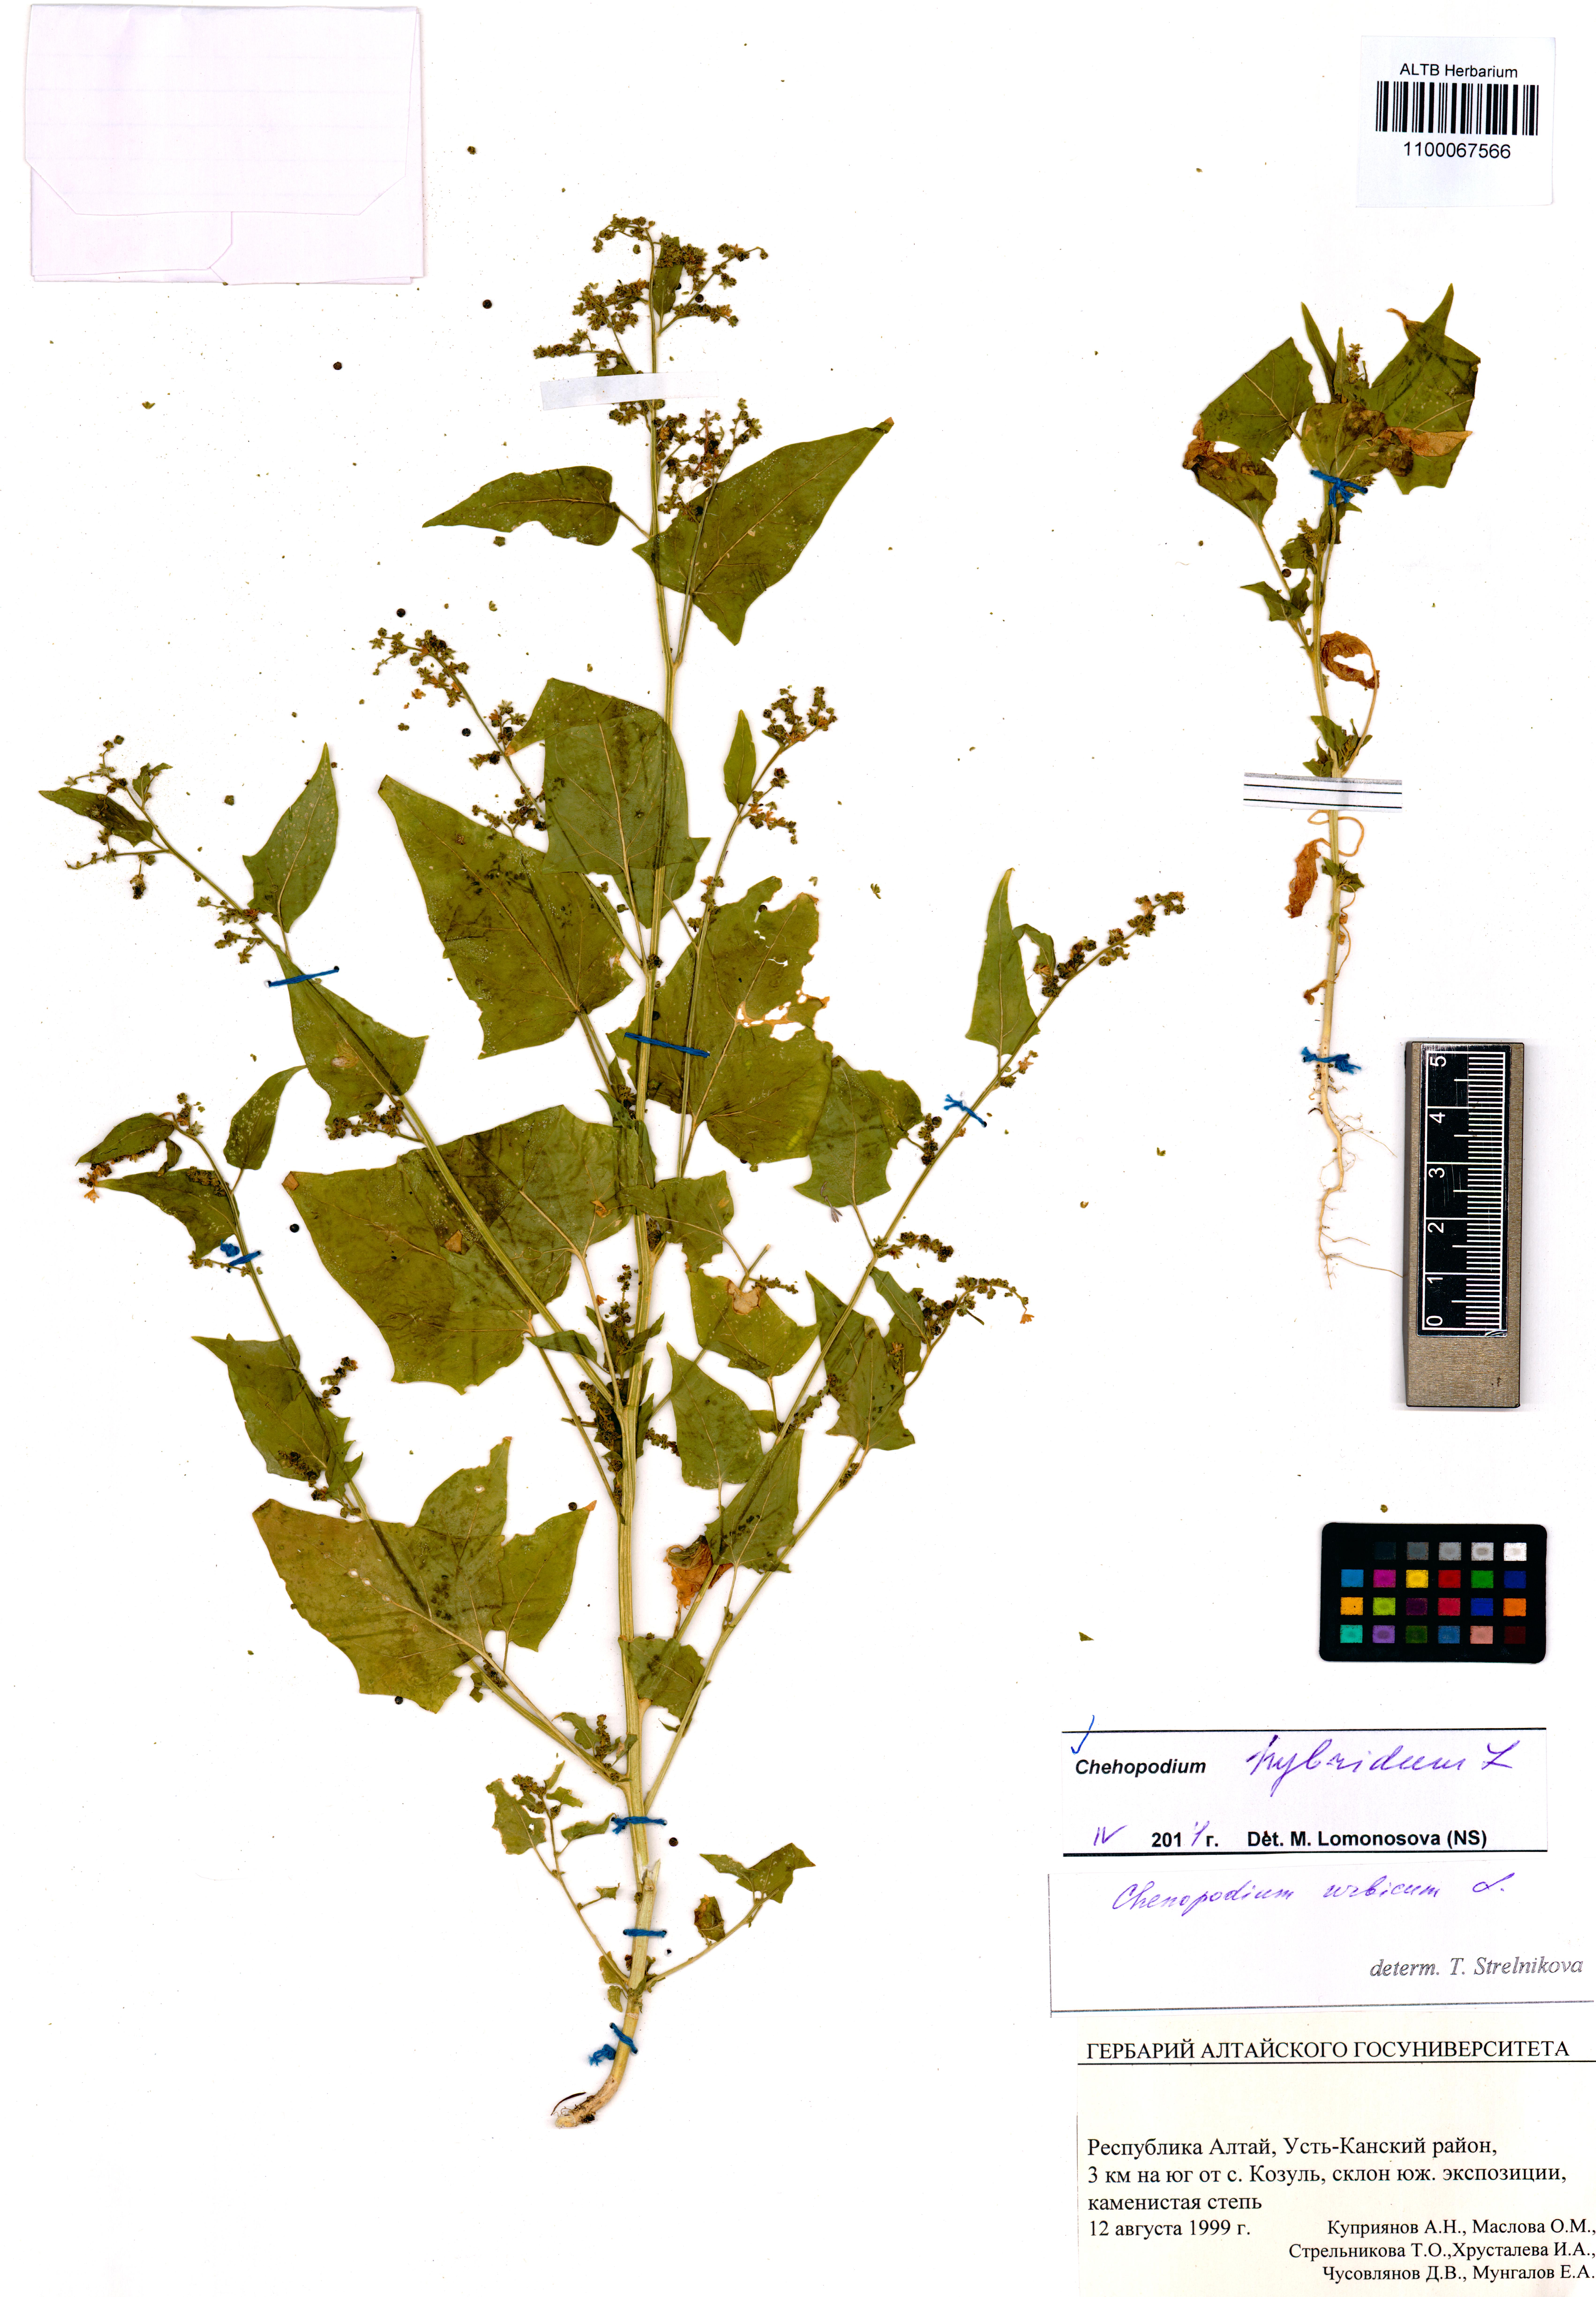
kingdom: Plantae
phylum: Tracheophyta
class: Magnoliopsida
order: Caryophyllales
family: Amaranthaceae
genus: Chenopodiastrum
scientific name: Chenopodiastrum hybridum
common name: Mapleleaf goosefoot
